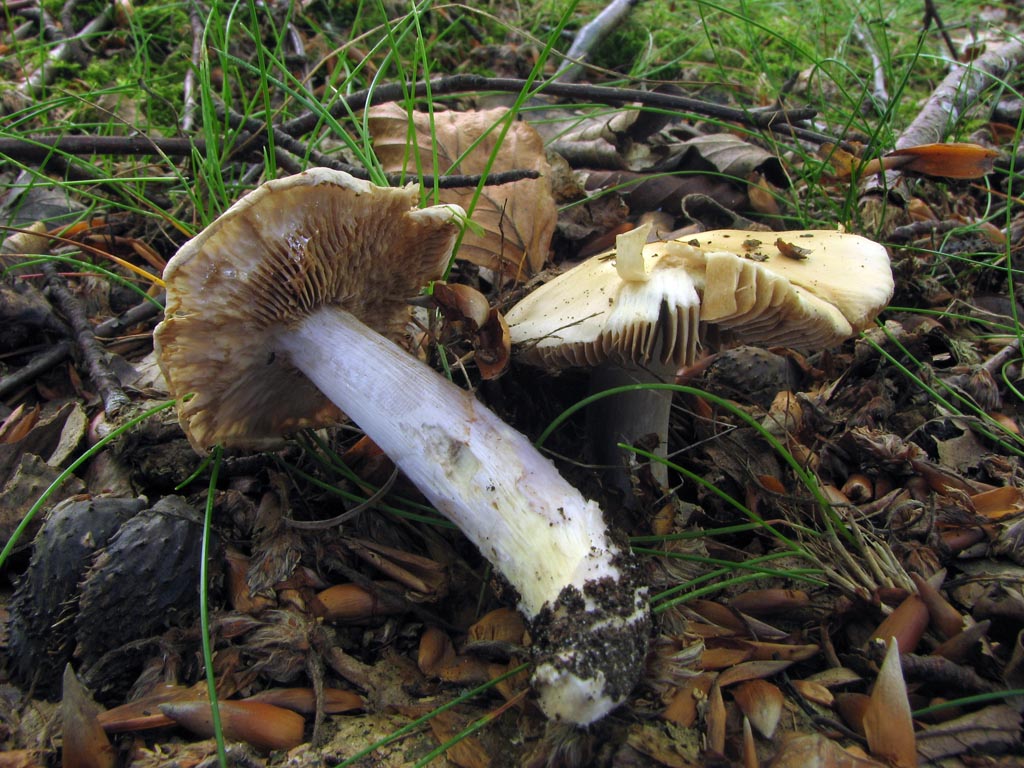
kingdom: Fungi
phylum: Basidiomycota
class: Agaricomycetes
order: Agaricales
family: Cortinariaceae
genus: Cortinarius
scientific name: Cortinarius elatior
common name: høj slørhat
